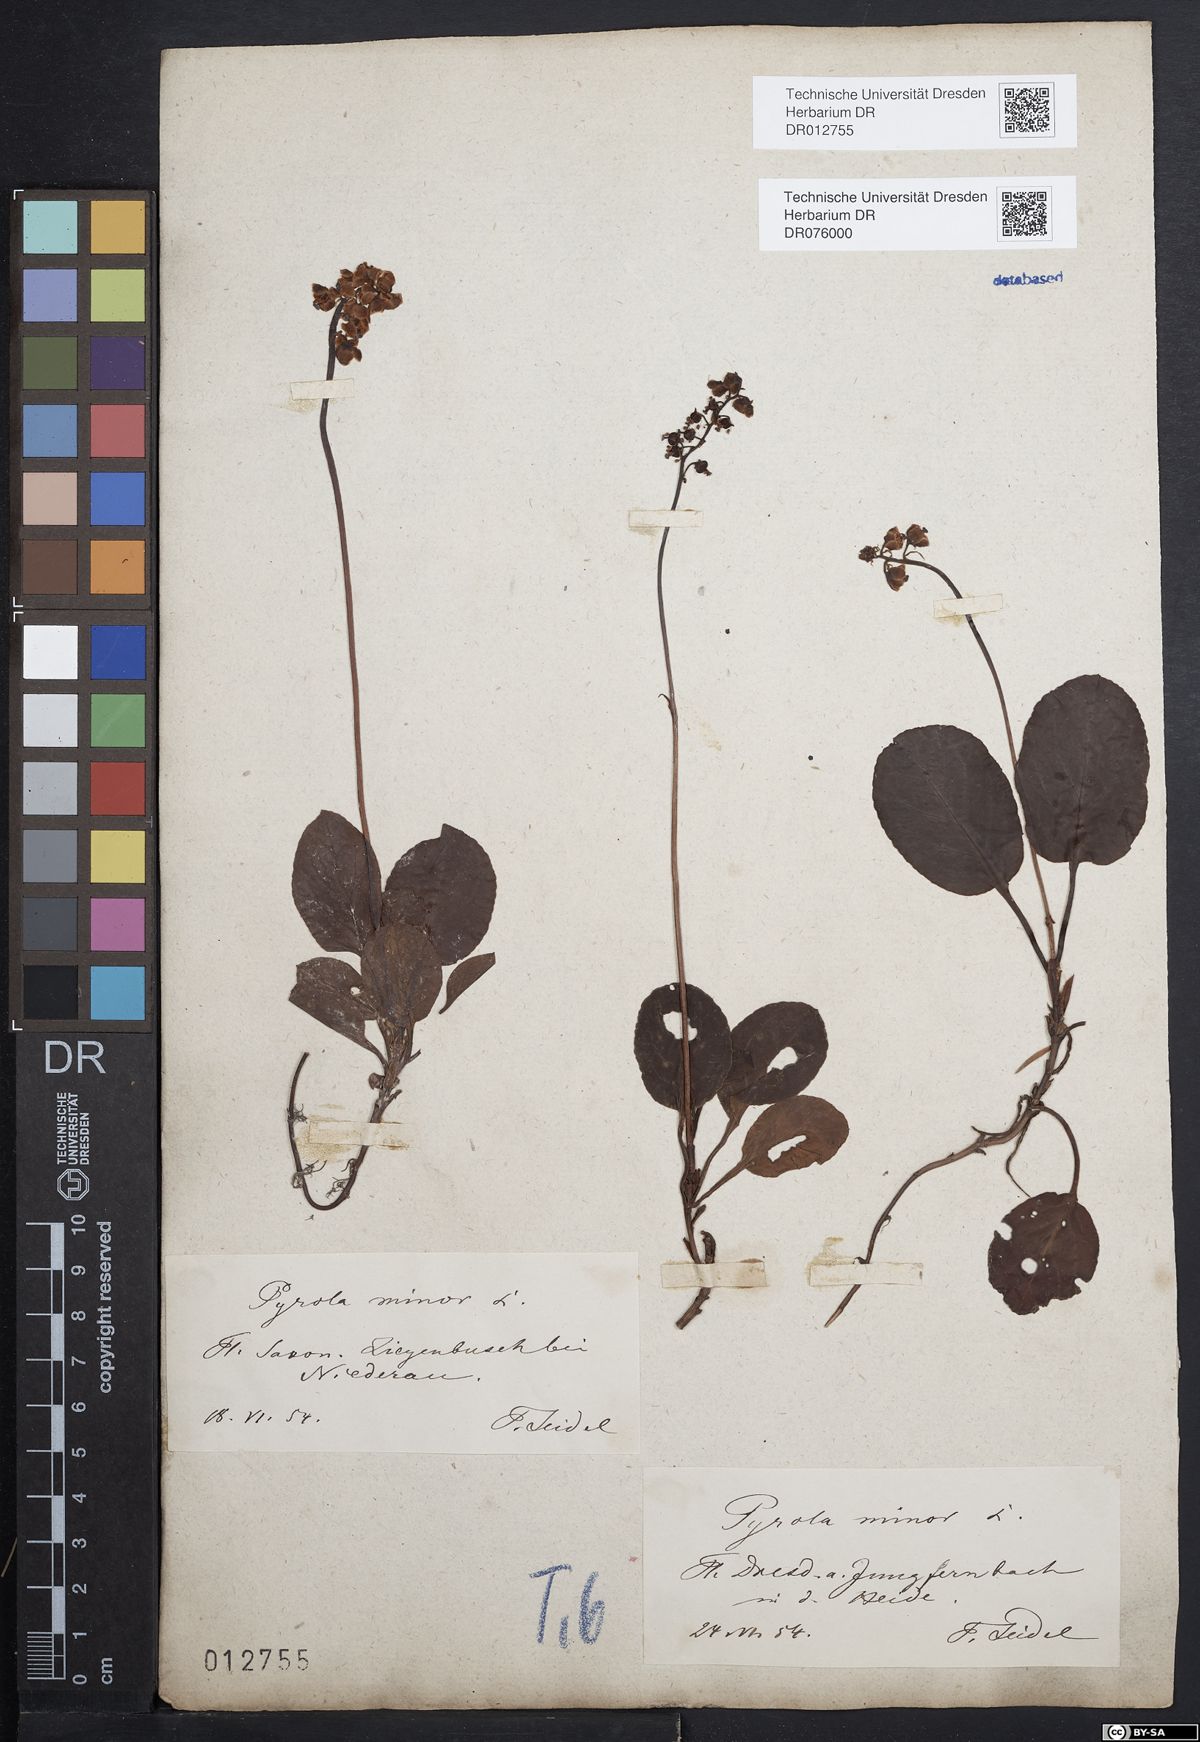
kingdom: Plantae
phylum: Tracheophyta
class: Magnoliopsida
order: Ericales
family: Ericaceae
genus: Pyrola
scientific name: Pyrola minor
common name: Common wintergreen
